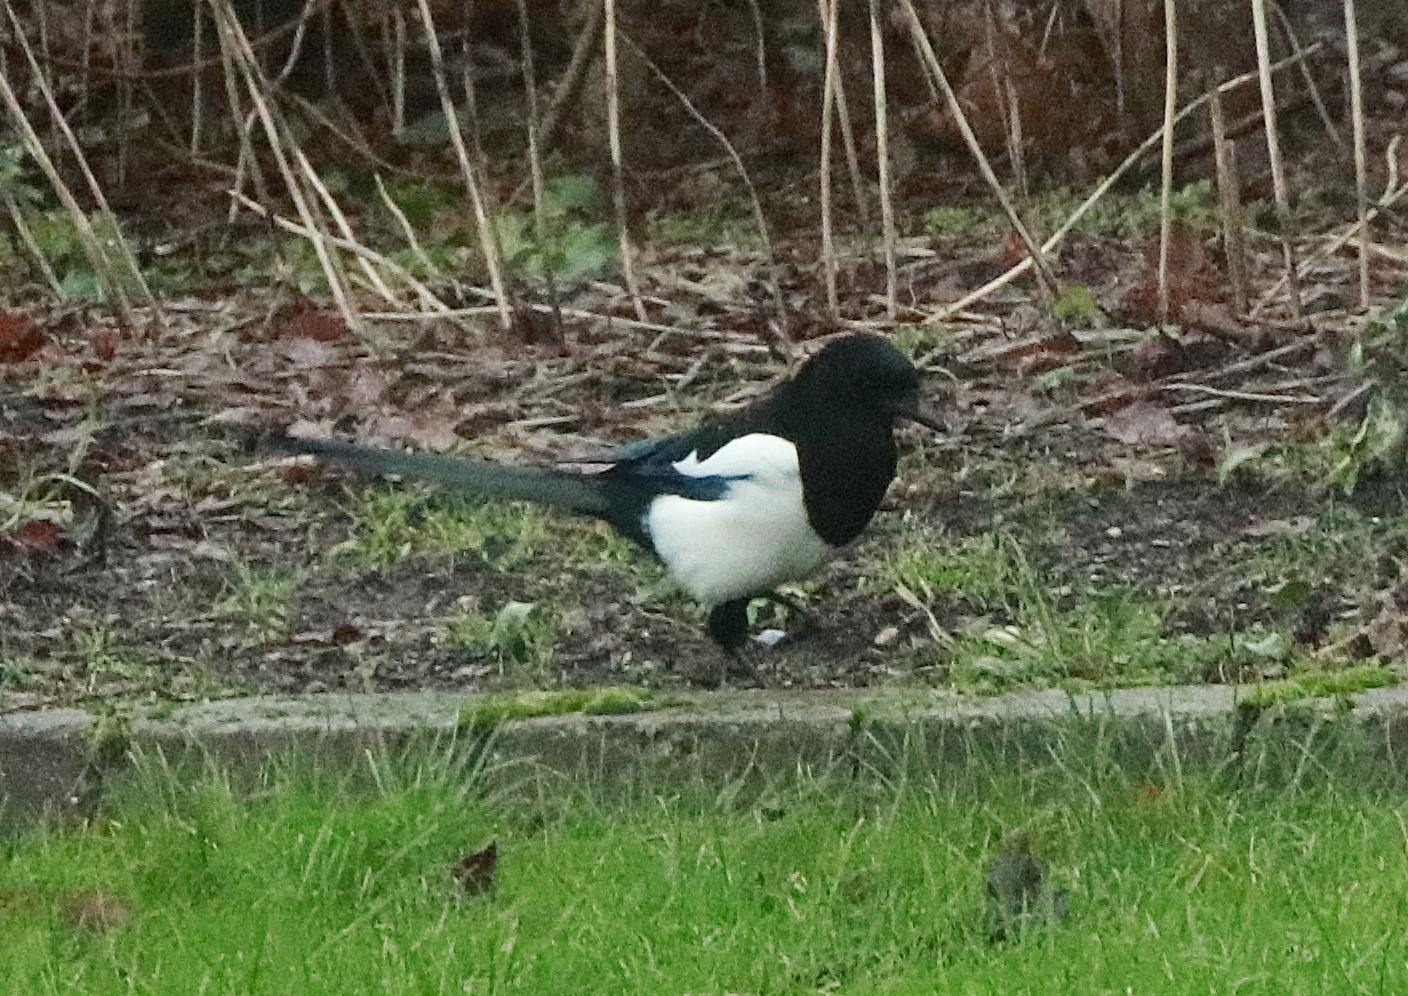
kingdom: Animalia
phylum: Chordata
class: Aves
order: Passeriformes
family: Corvidae
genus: Pica
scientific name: Pica pica
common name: Husskade
